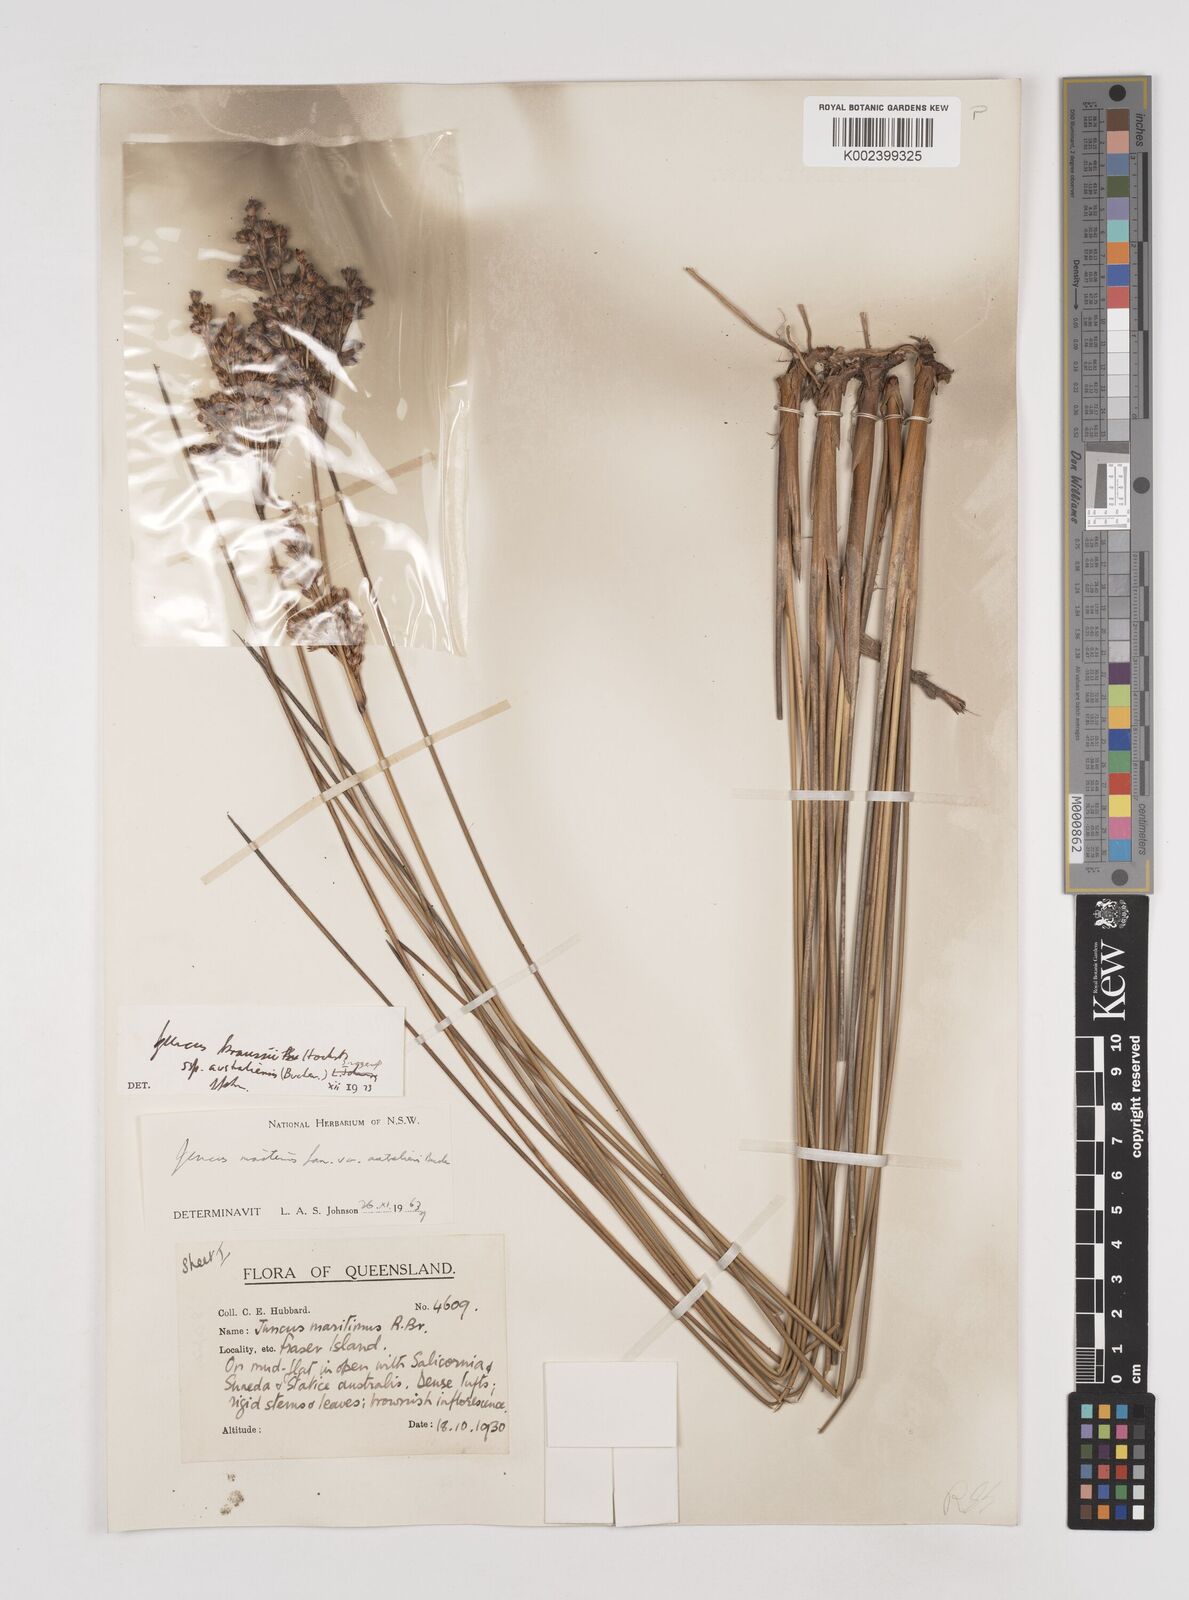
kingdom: Plantae
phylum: Tracheophyta
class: Liliopsida
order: Poales
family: Juncaceae
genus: Juncus
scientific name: Juncus kraussii
